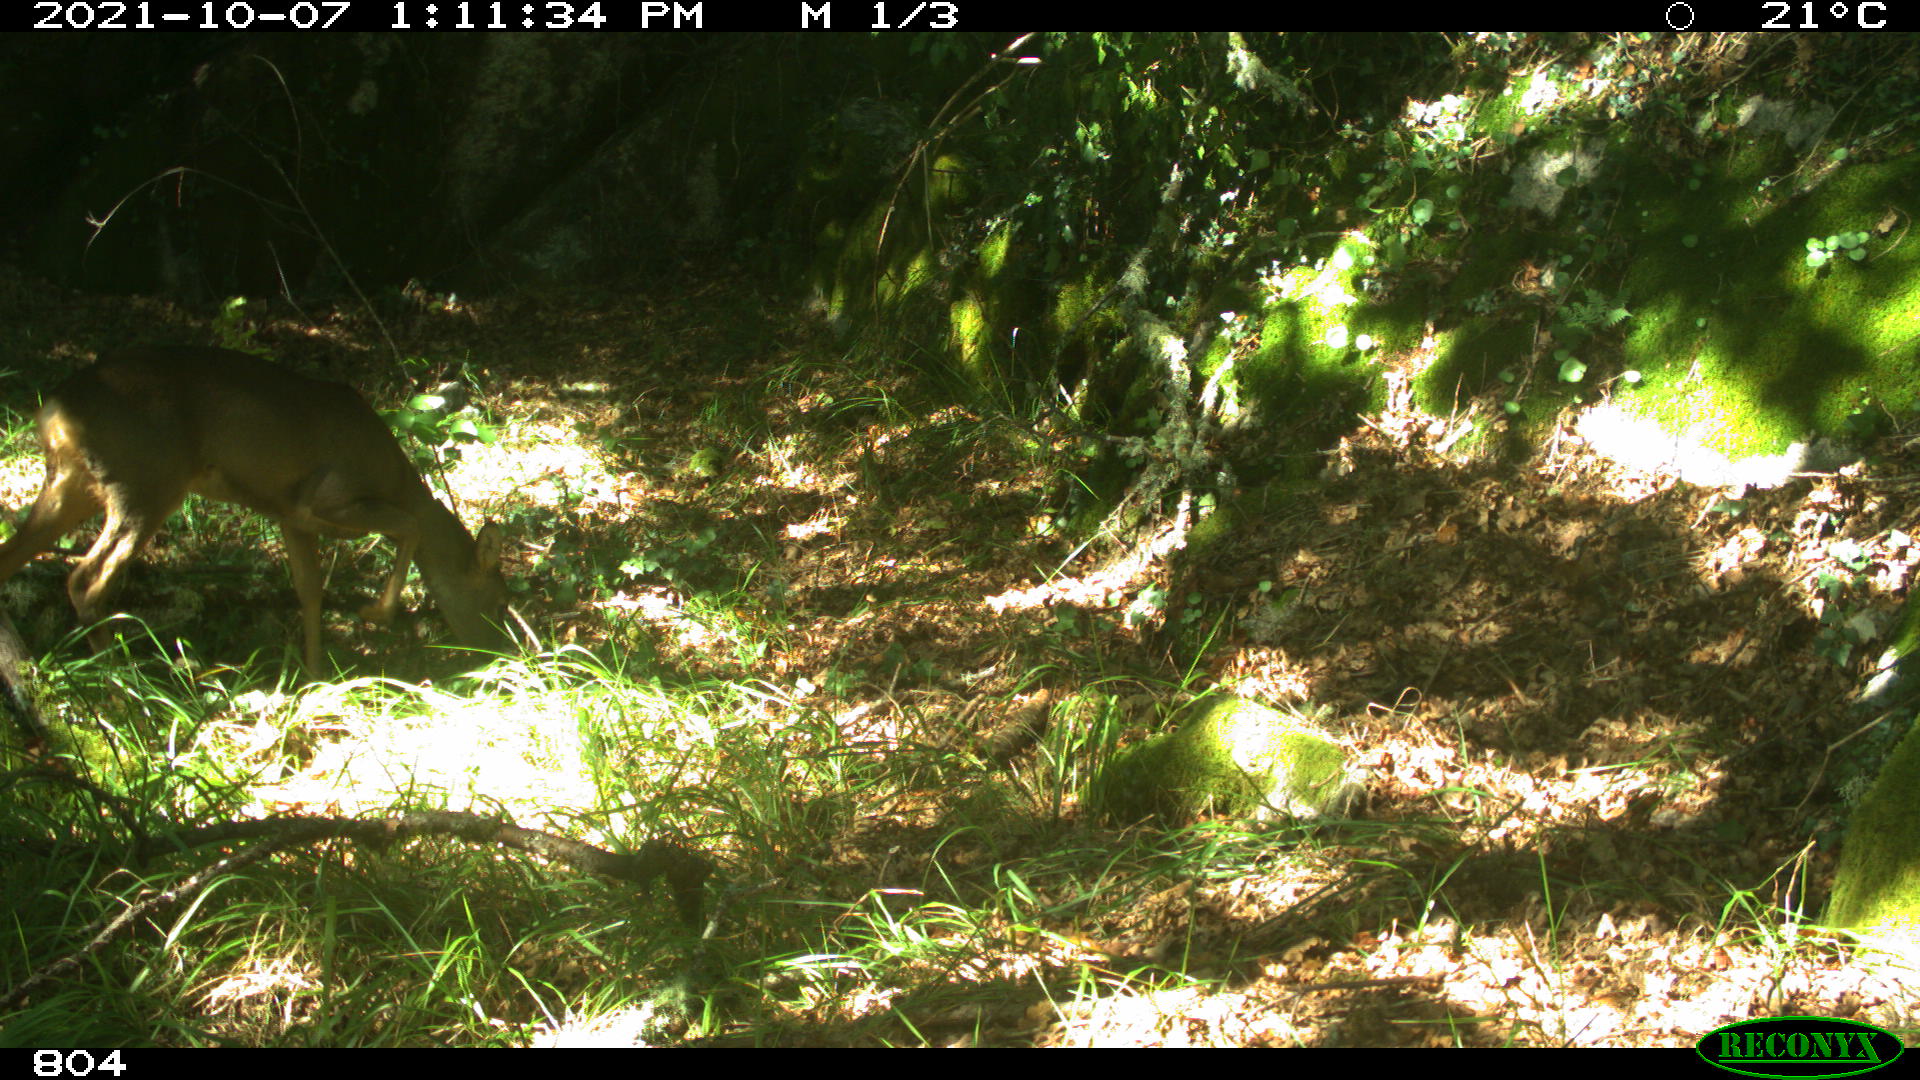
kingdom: Animalia
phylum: Chordata
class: Mammalia
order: Artiodactyla
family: Cervidae
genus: Capreolus
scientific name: Capreolus capreolus
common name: Western roe deer
